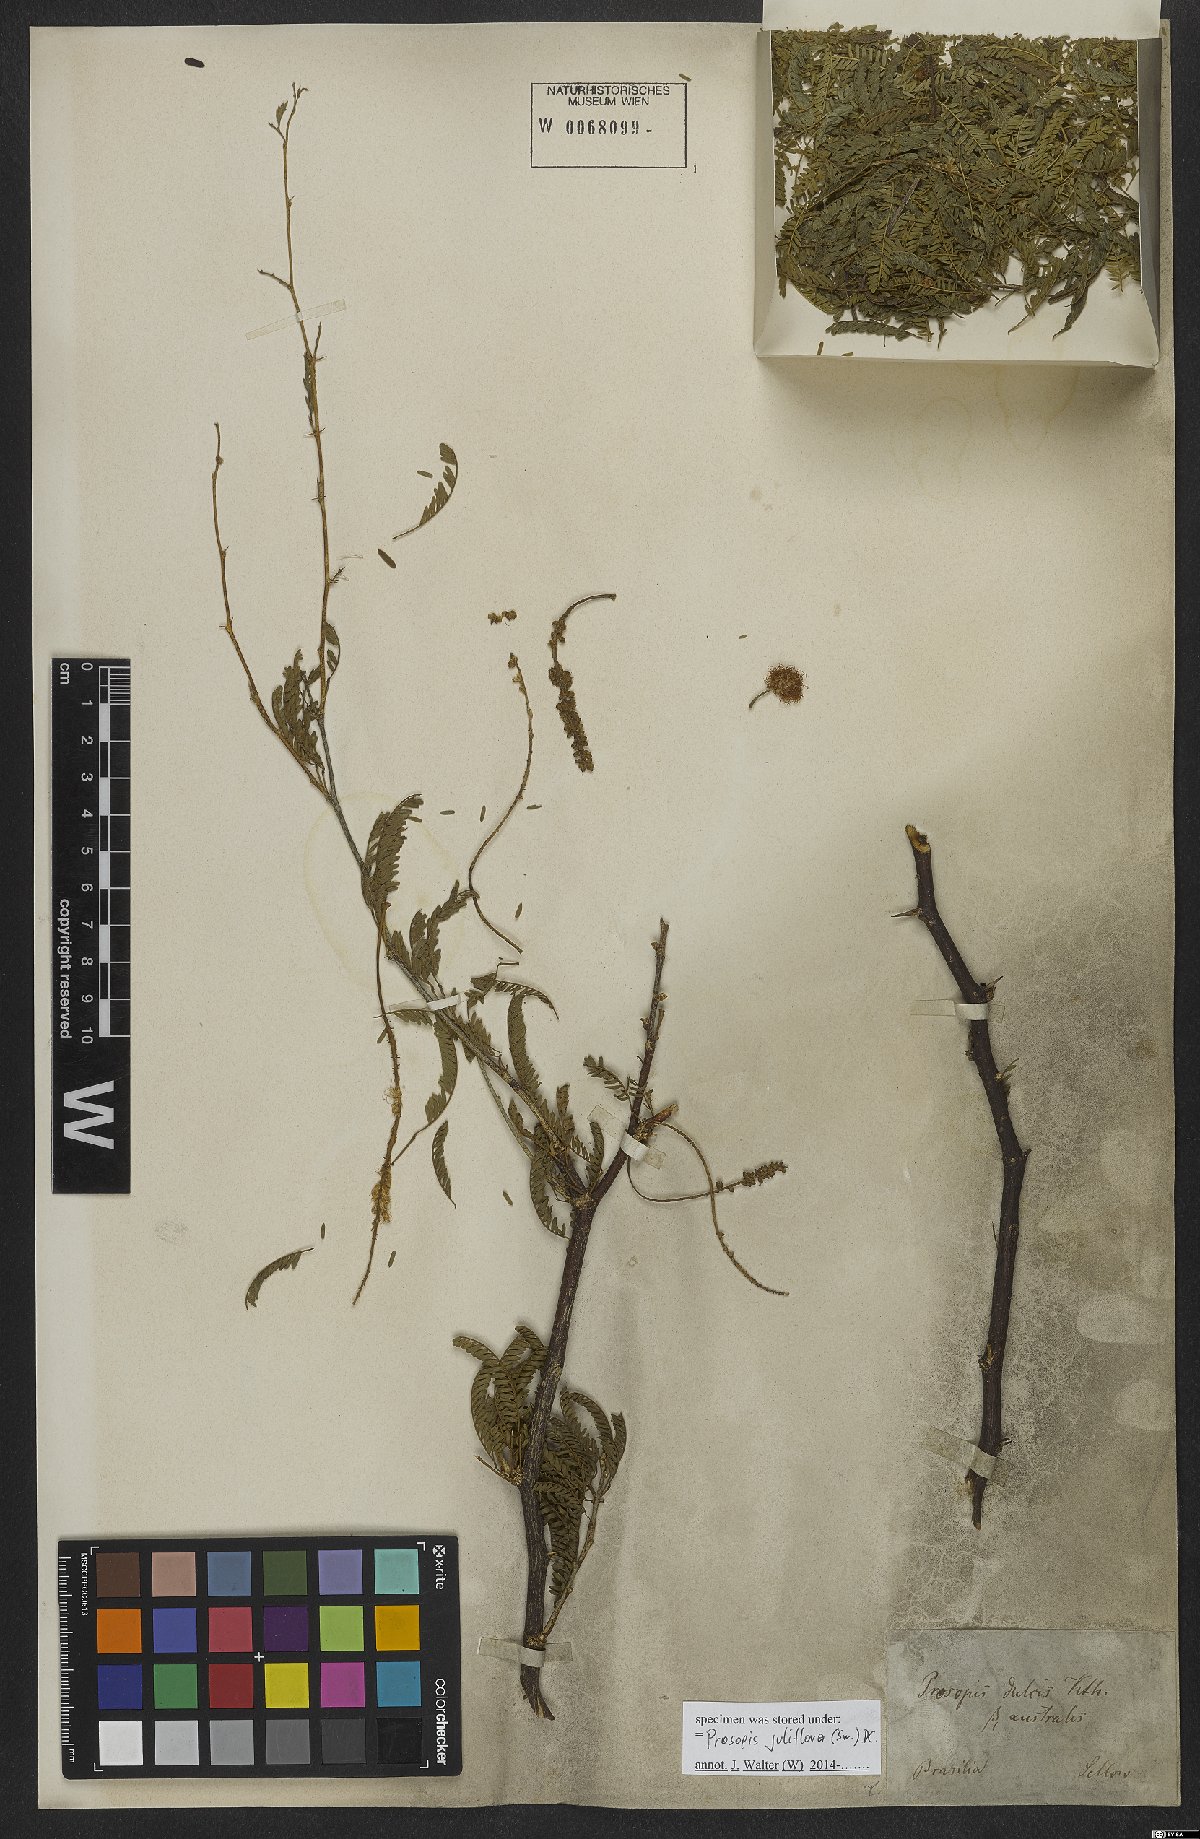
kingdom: Plantae
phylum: Tracheophyta
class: Magnoliopsida
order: Fabales
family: Fabaceae
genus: Prosopis
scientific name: Prosopis juliflora
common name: Mesquite
